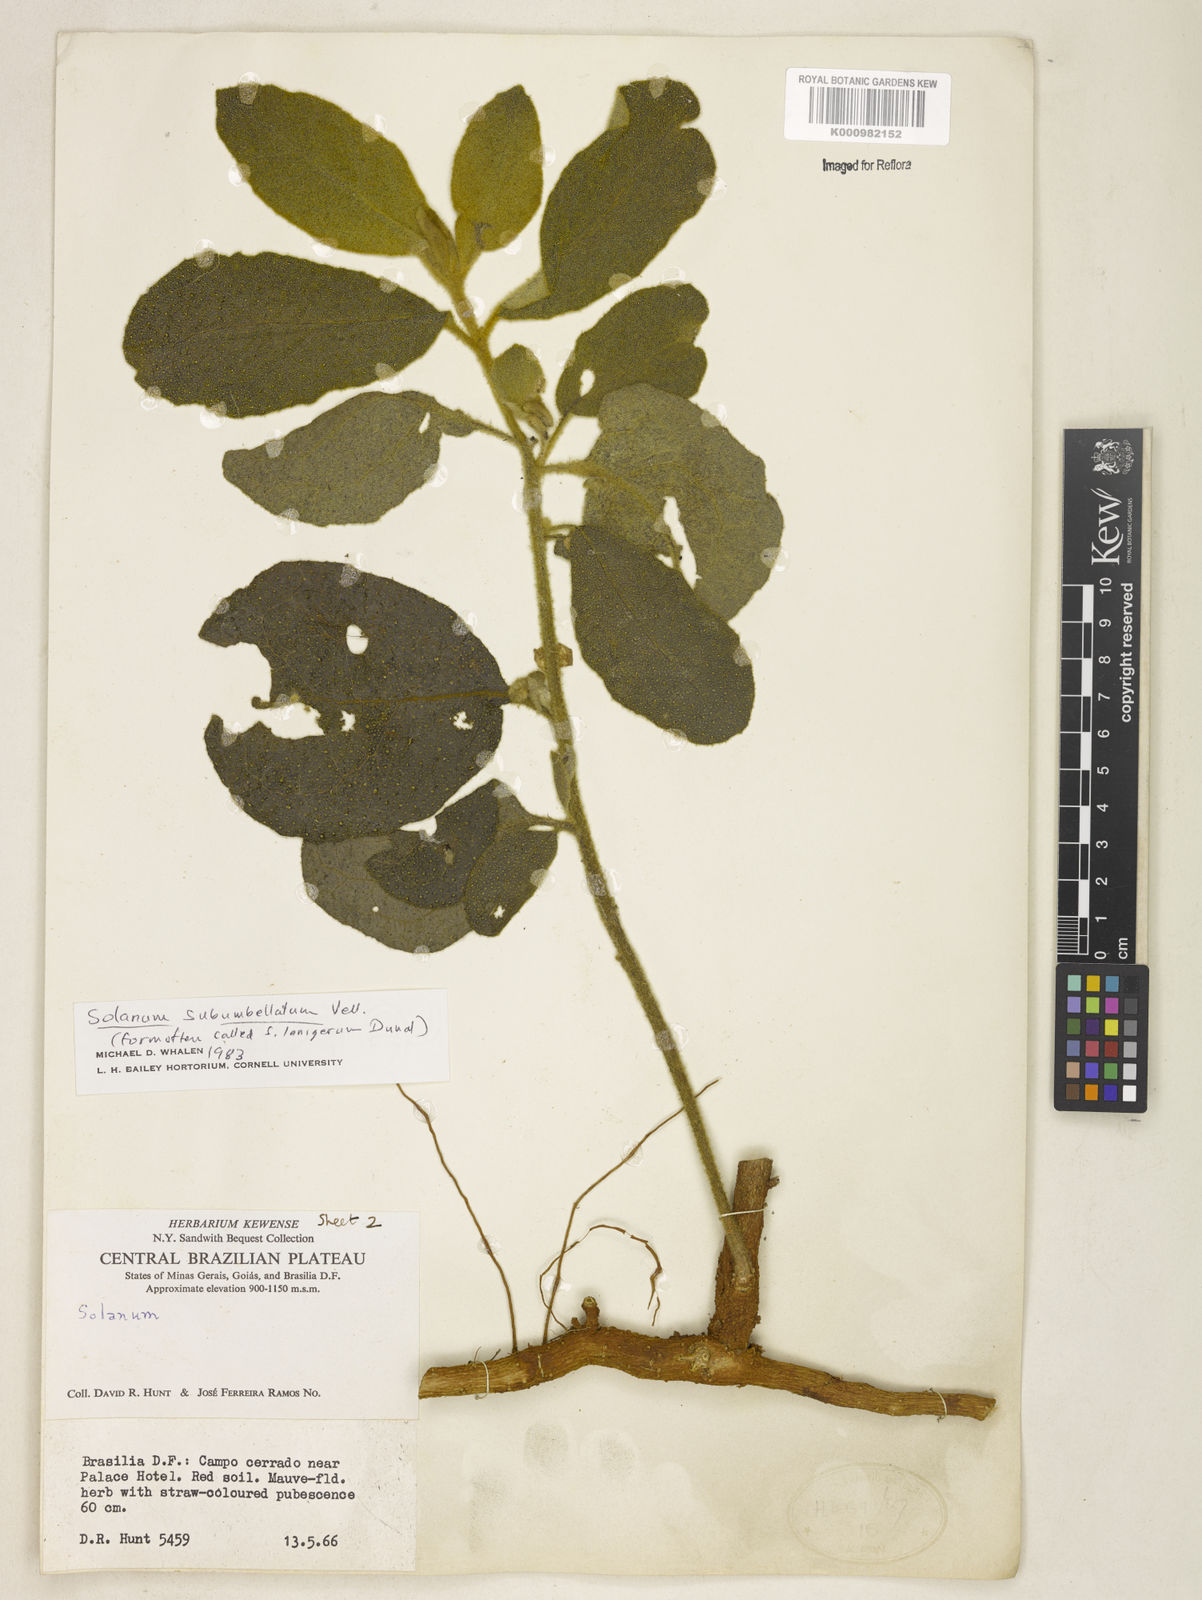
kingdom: Plantae
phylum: Tracheophyta
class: Magnoliopsida
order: Solanales
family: Solanaceae
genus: Solanum
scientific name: Solanum subumbellatum
